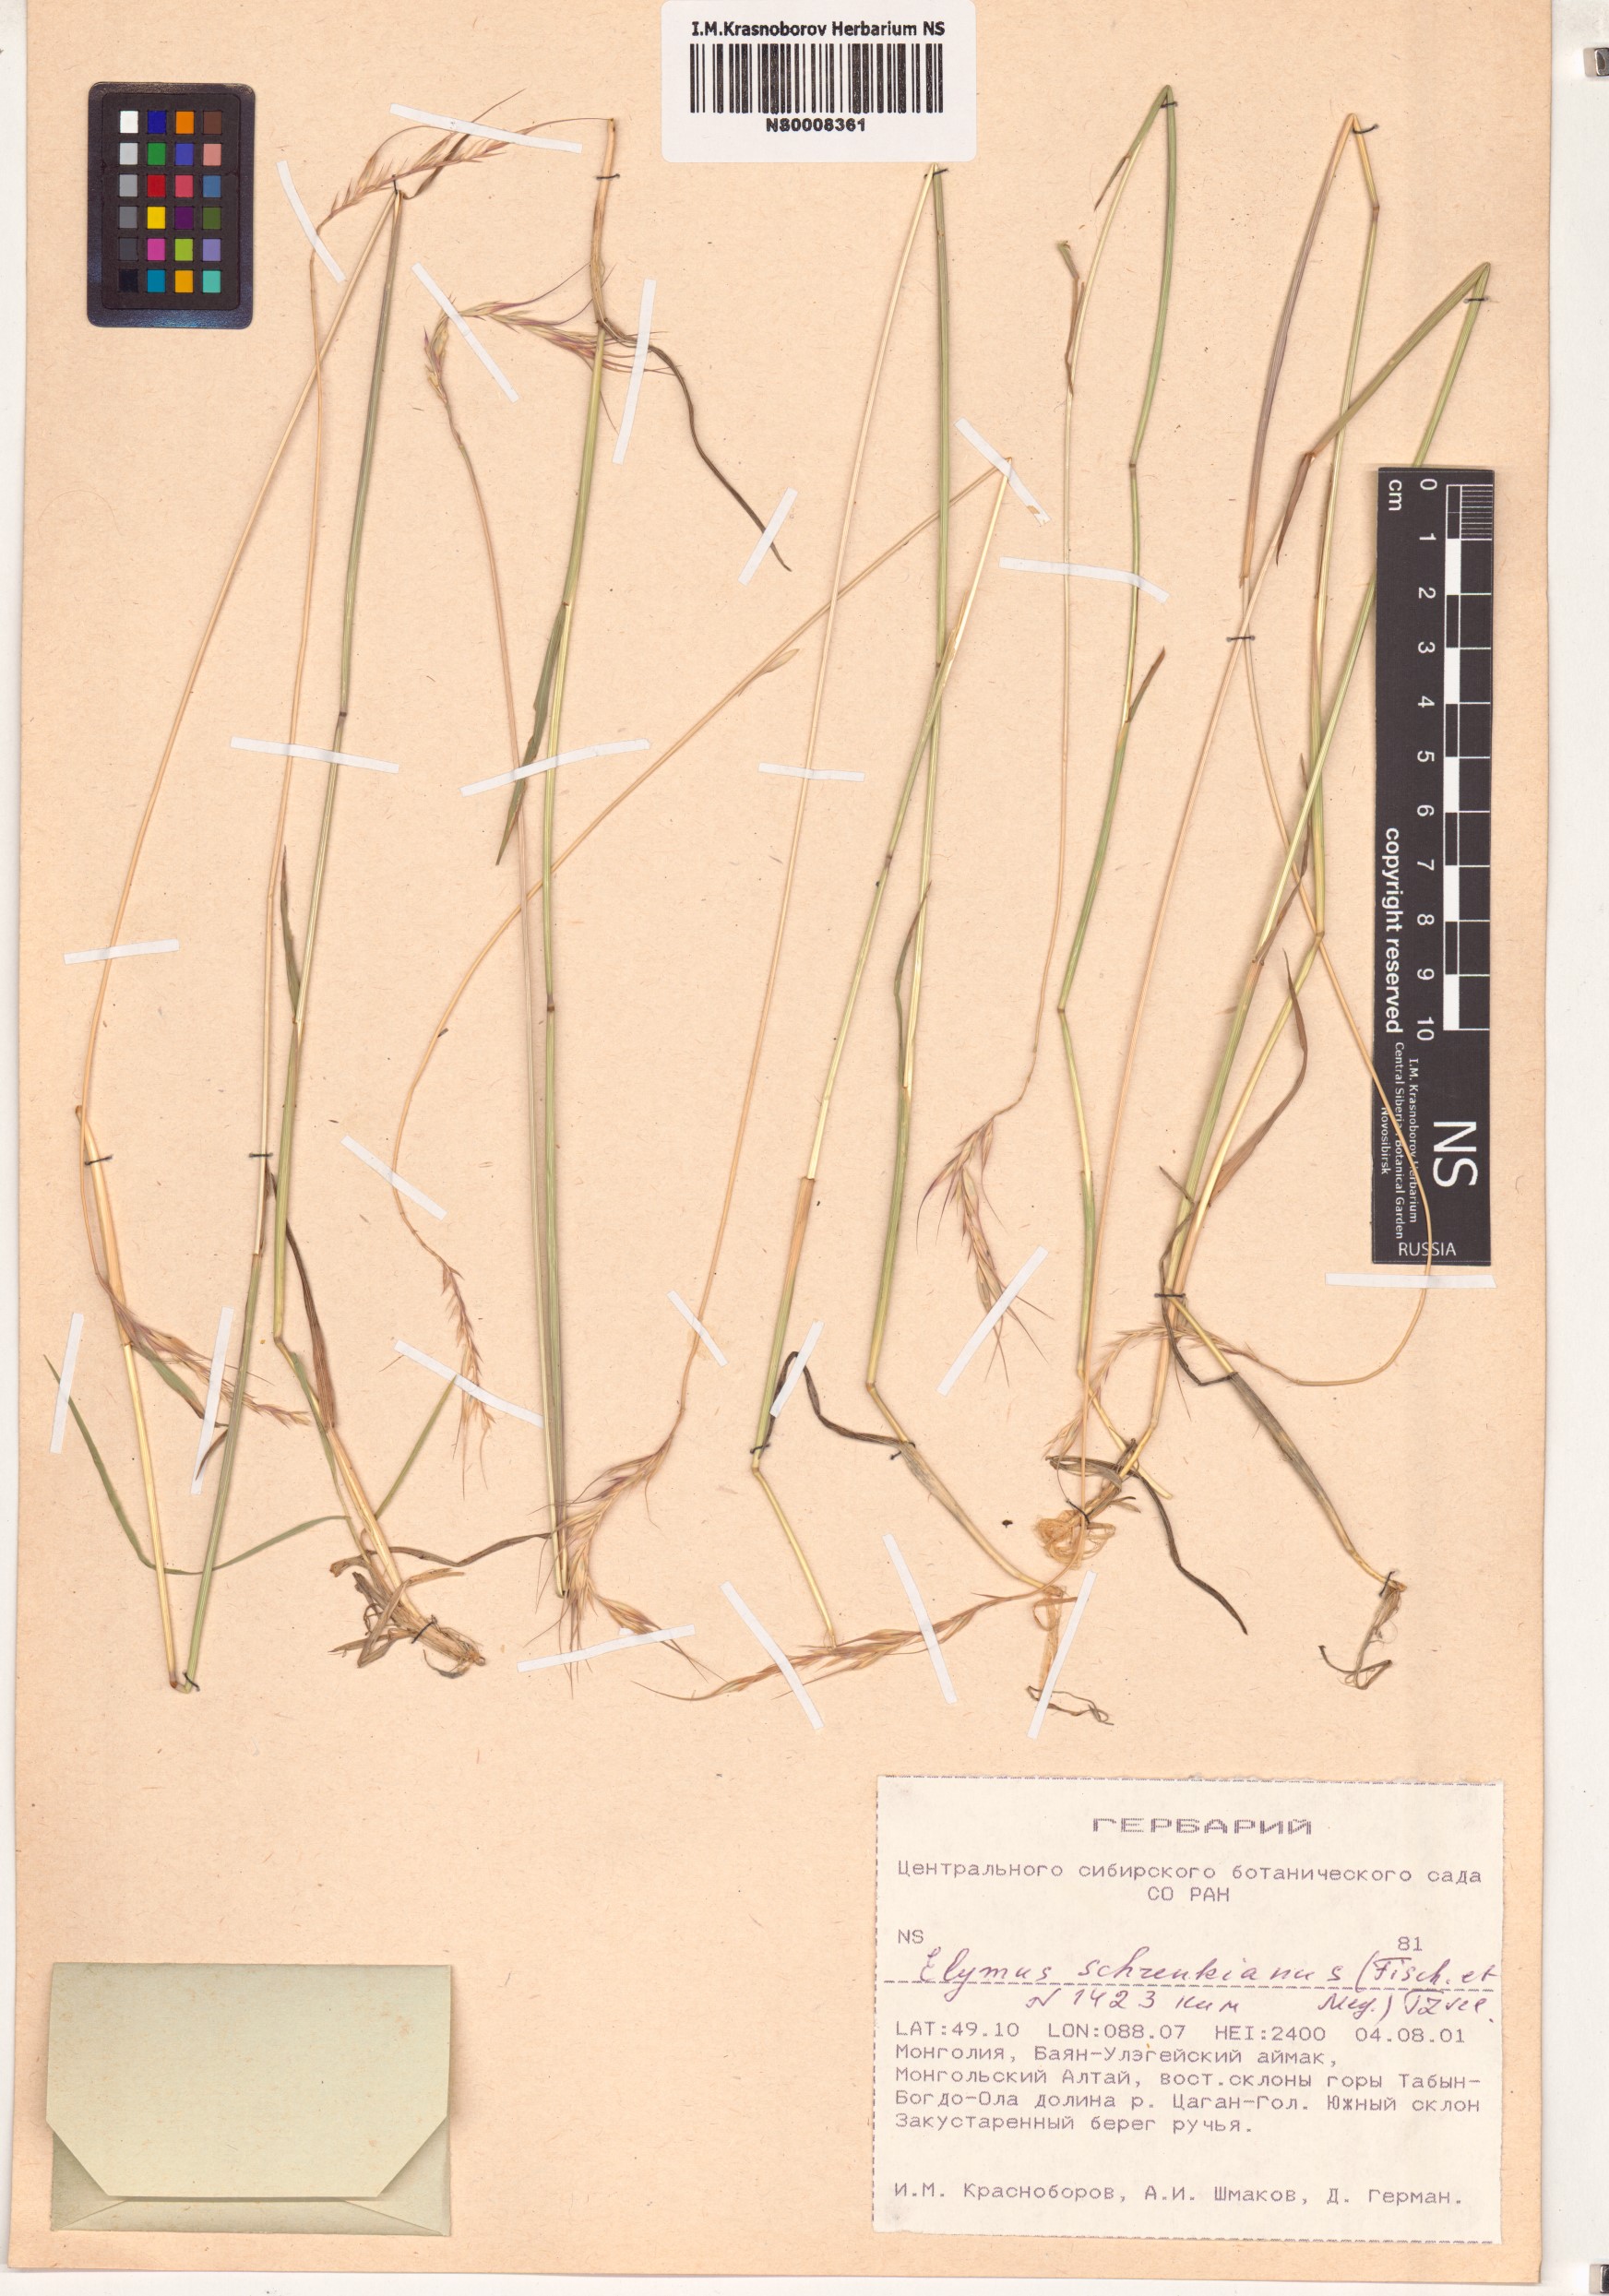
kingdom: Plantae
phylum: Tracheophyta
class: Liliopsida
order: Poales
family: Poaceae
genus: Campeiostachys
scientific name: Campeiostachys schrenkiana
